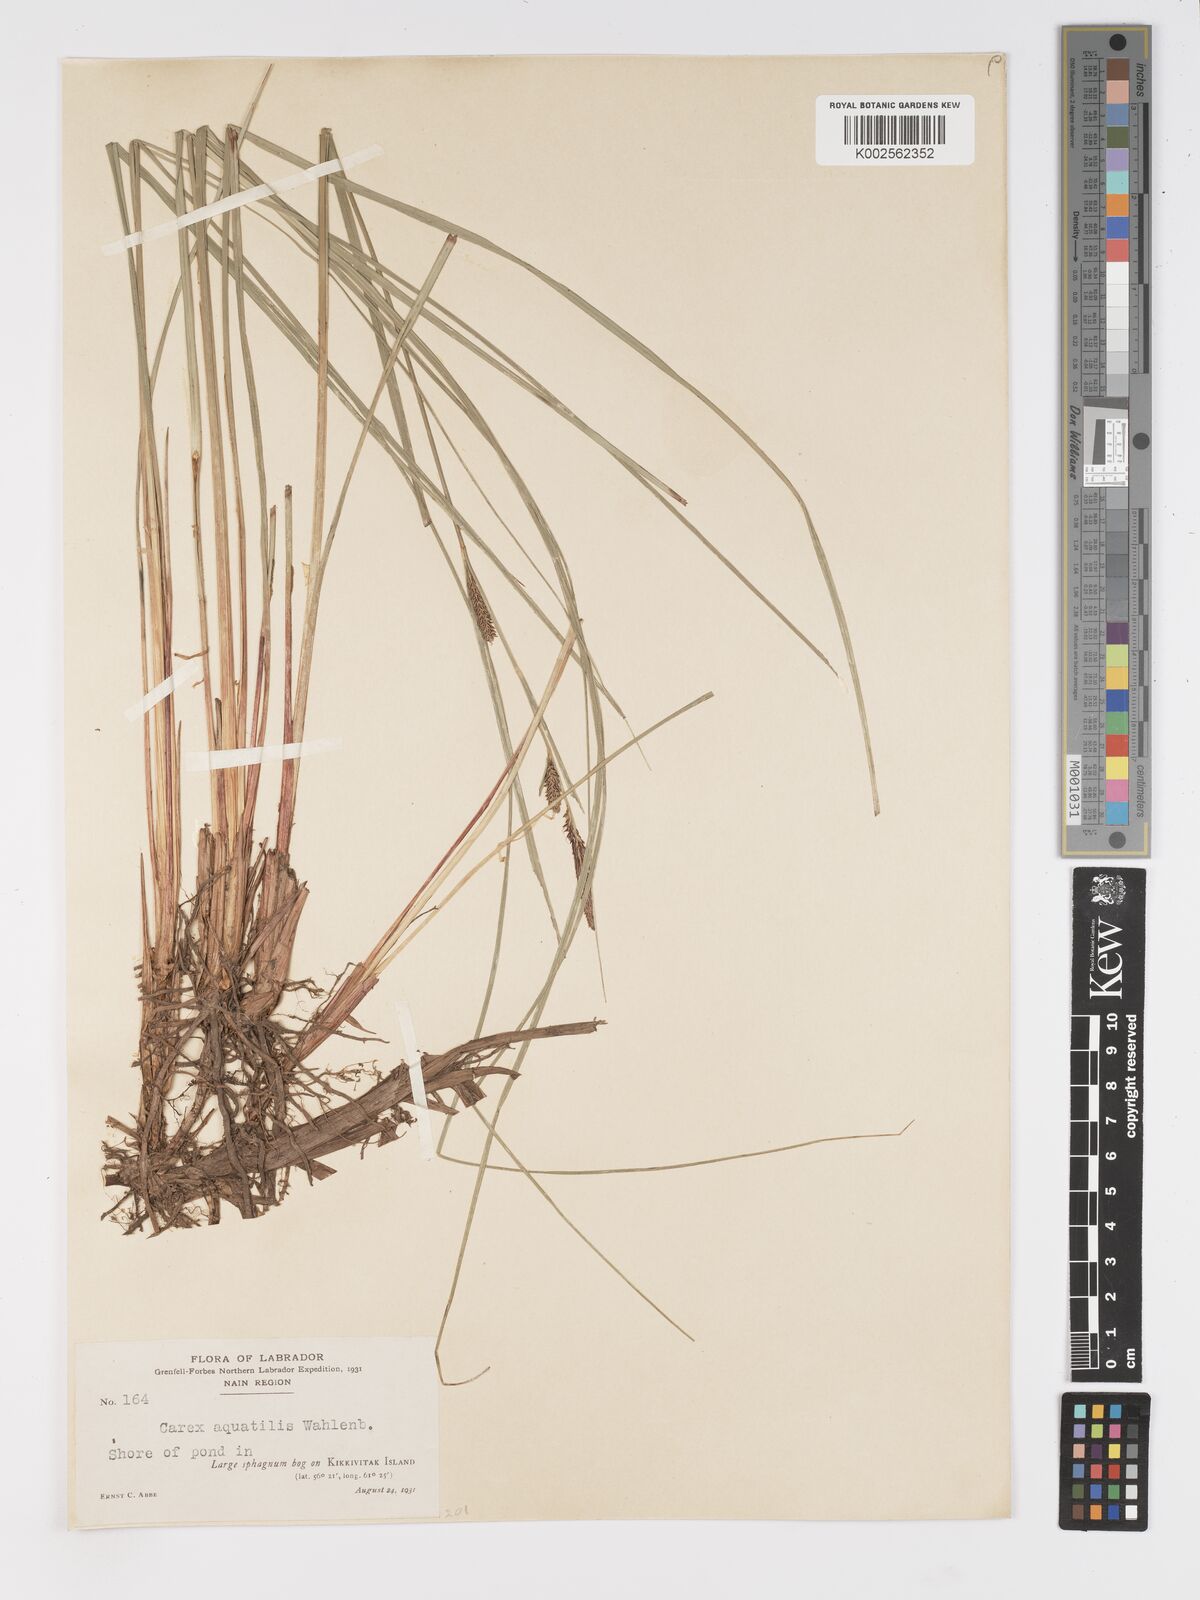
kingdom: Plantae
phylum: Tracheophyta
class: Liliopsida
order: Poales
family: Cyperaceae
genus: Carex
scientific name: Carex aquatilis
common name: Water sedge
